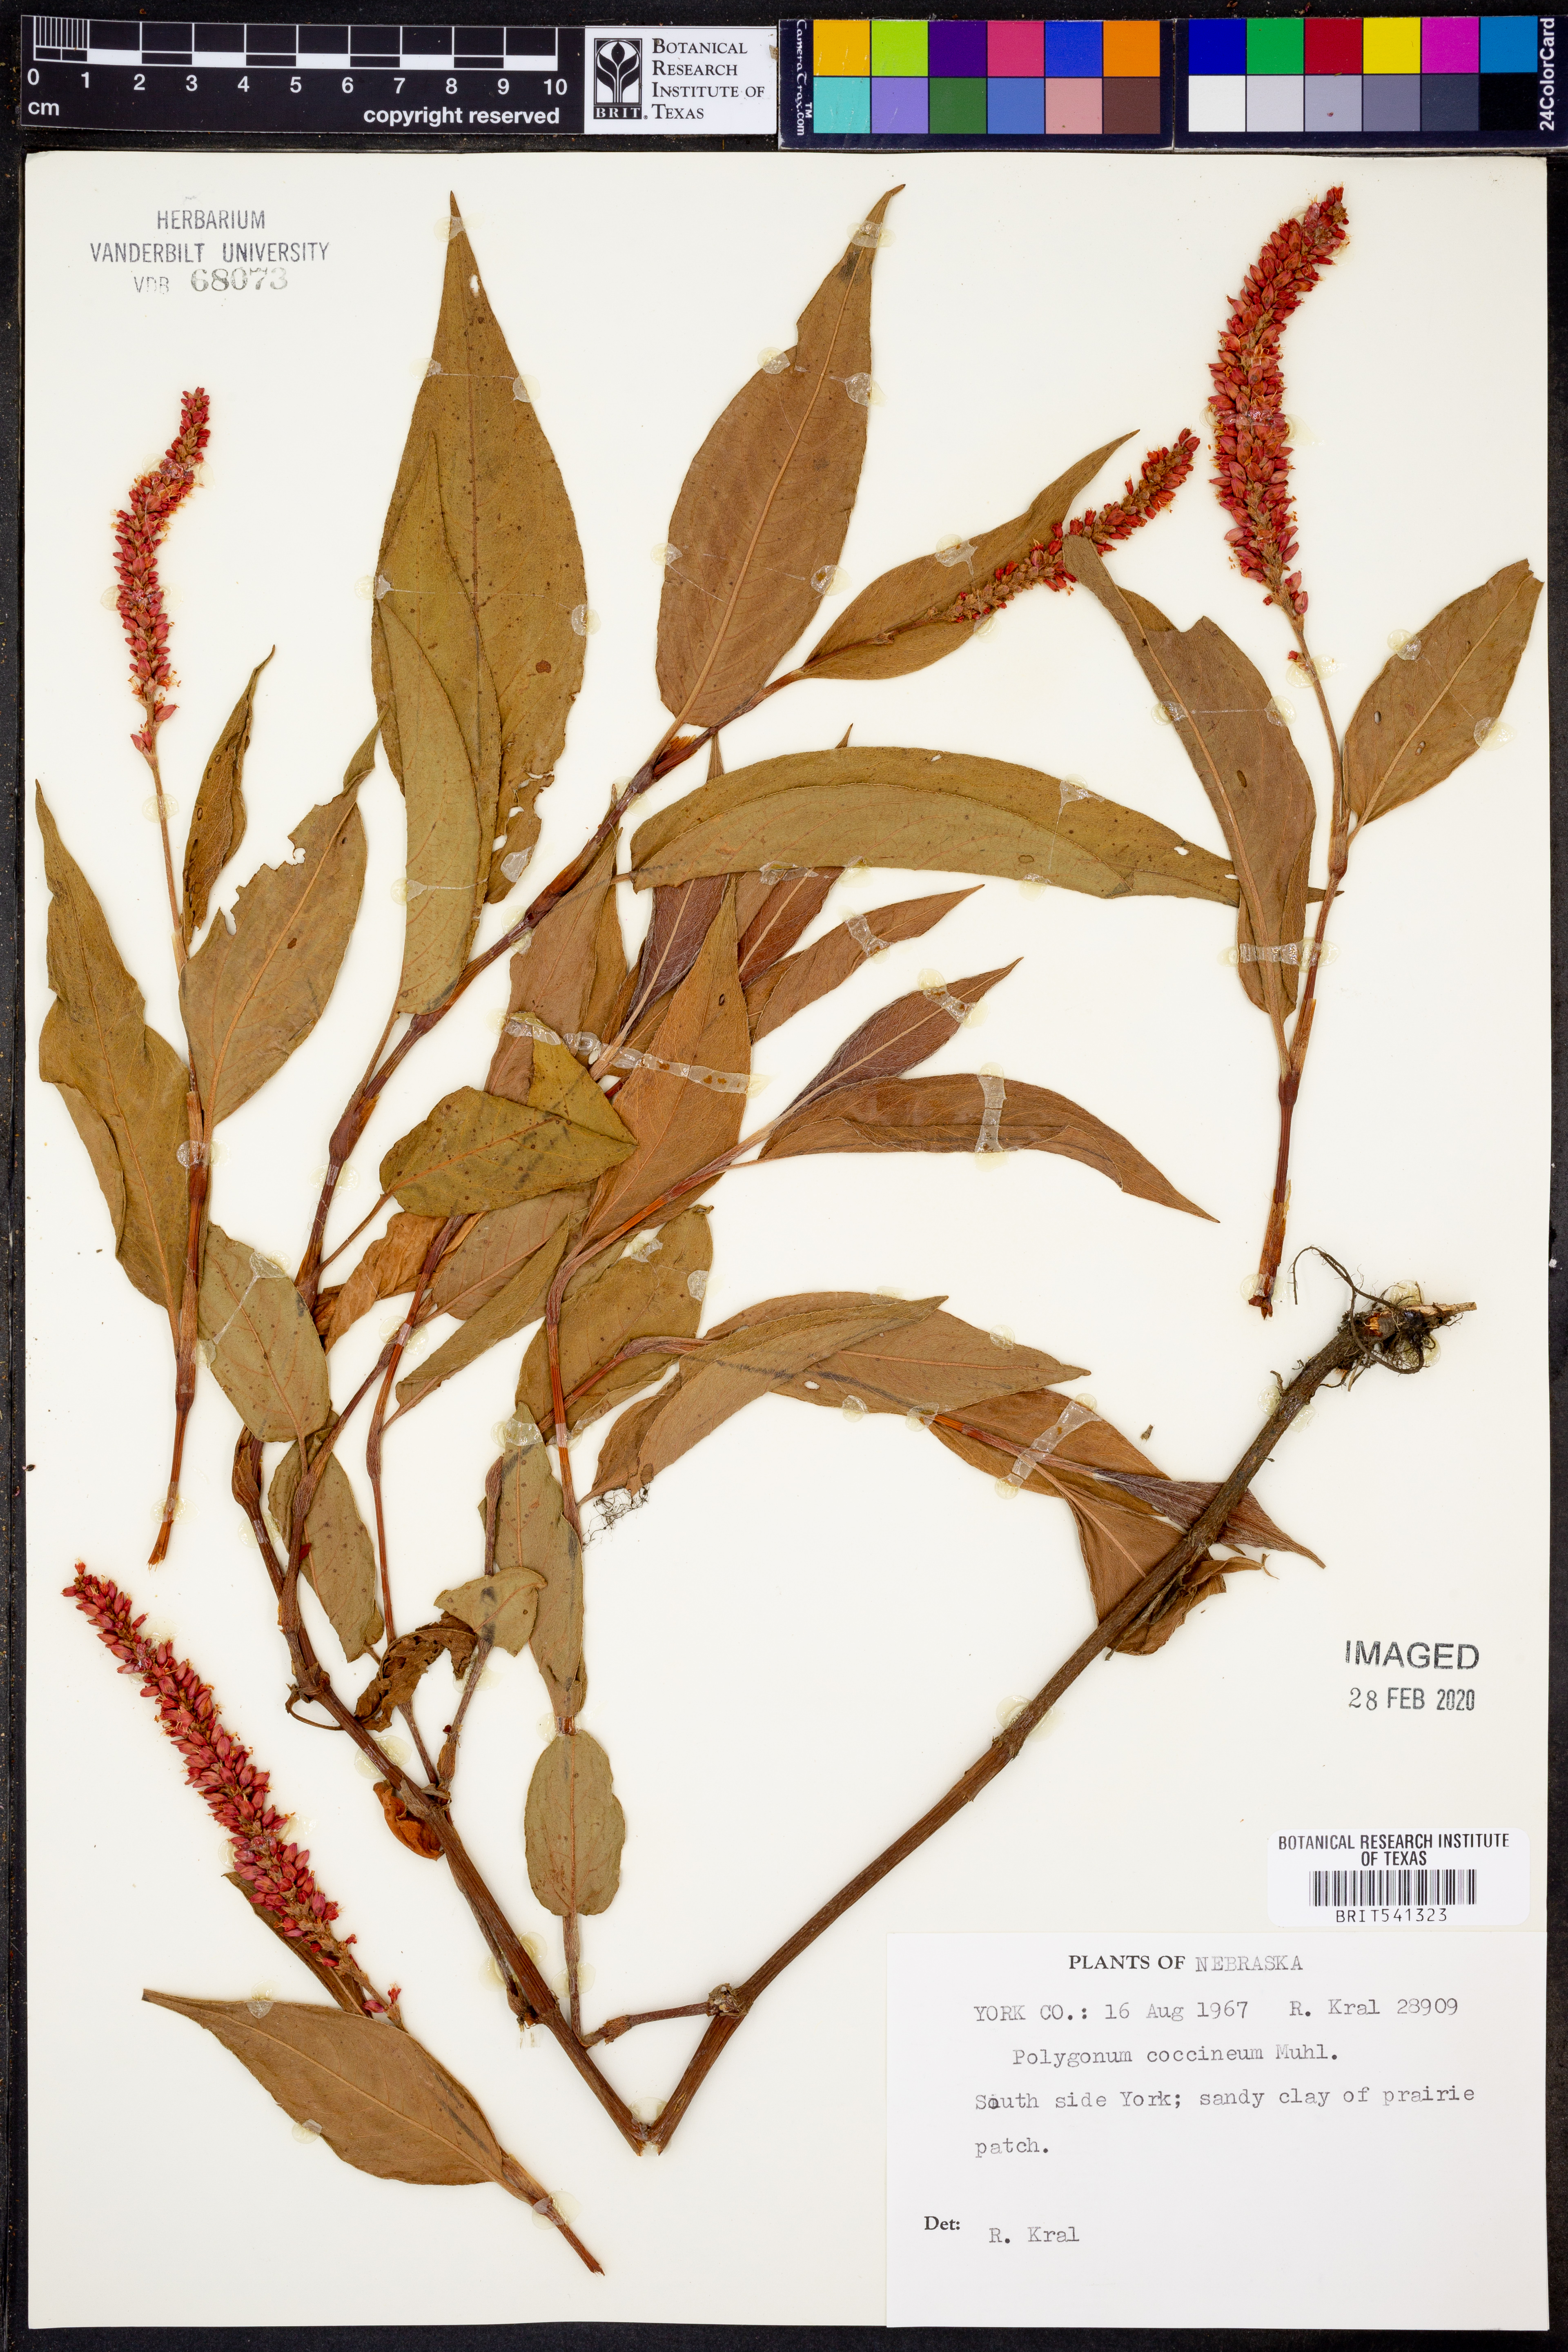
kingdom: Plantae
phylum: Tracheophyta
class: Magnoliopsida
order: Caryophyllales
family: Polygonaceae
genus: Persicaria
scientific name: Persicaria amphibia
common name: Amphibious bistort
